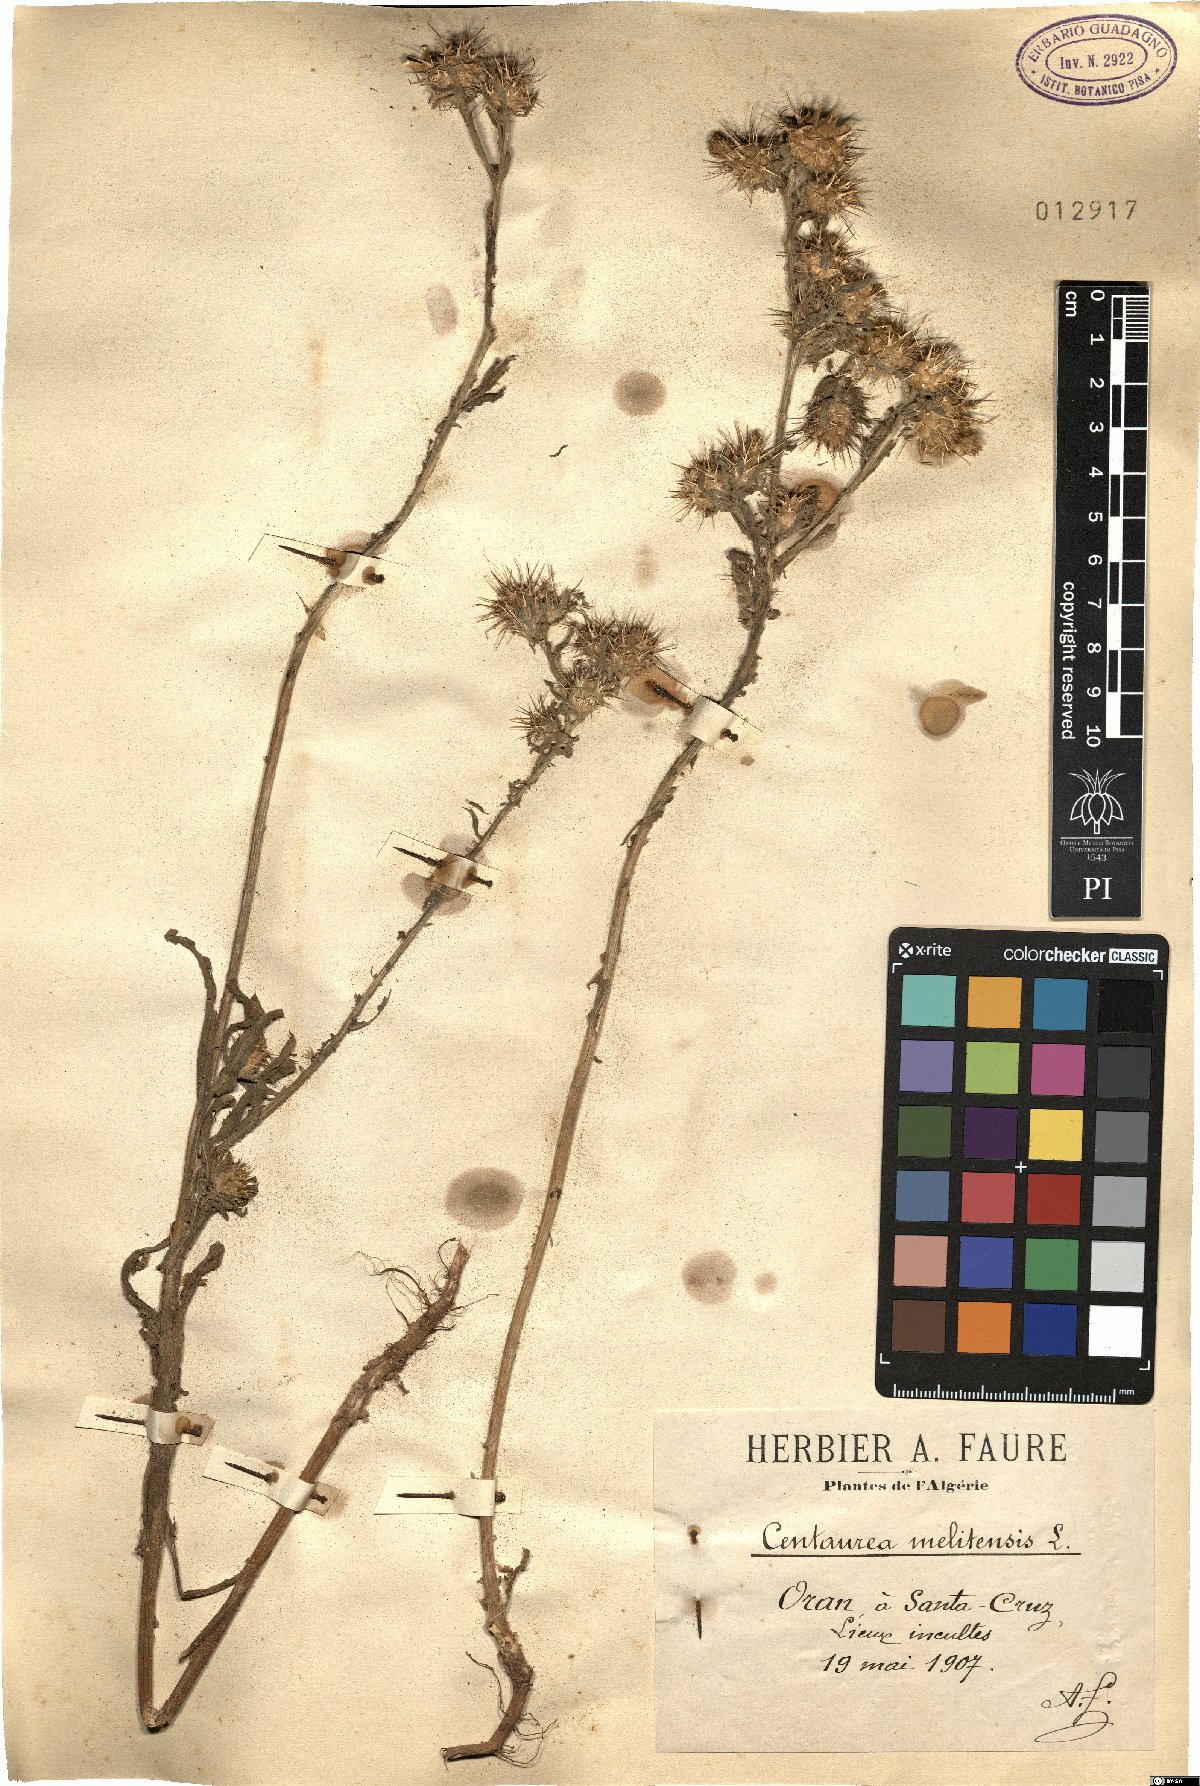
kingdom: Plantae
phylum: Tracheophyta
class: Magnoliopsida
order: Asterales
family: Asteraceae
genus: Centaurea
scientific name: Centaurea melitensis
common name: Maltese star-thistle
